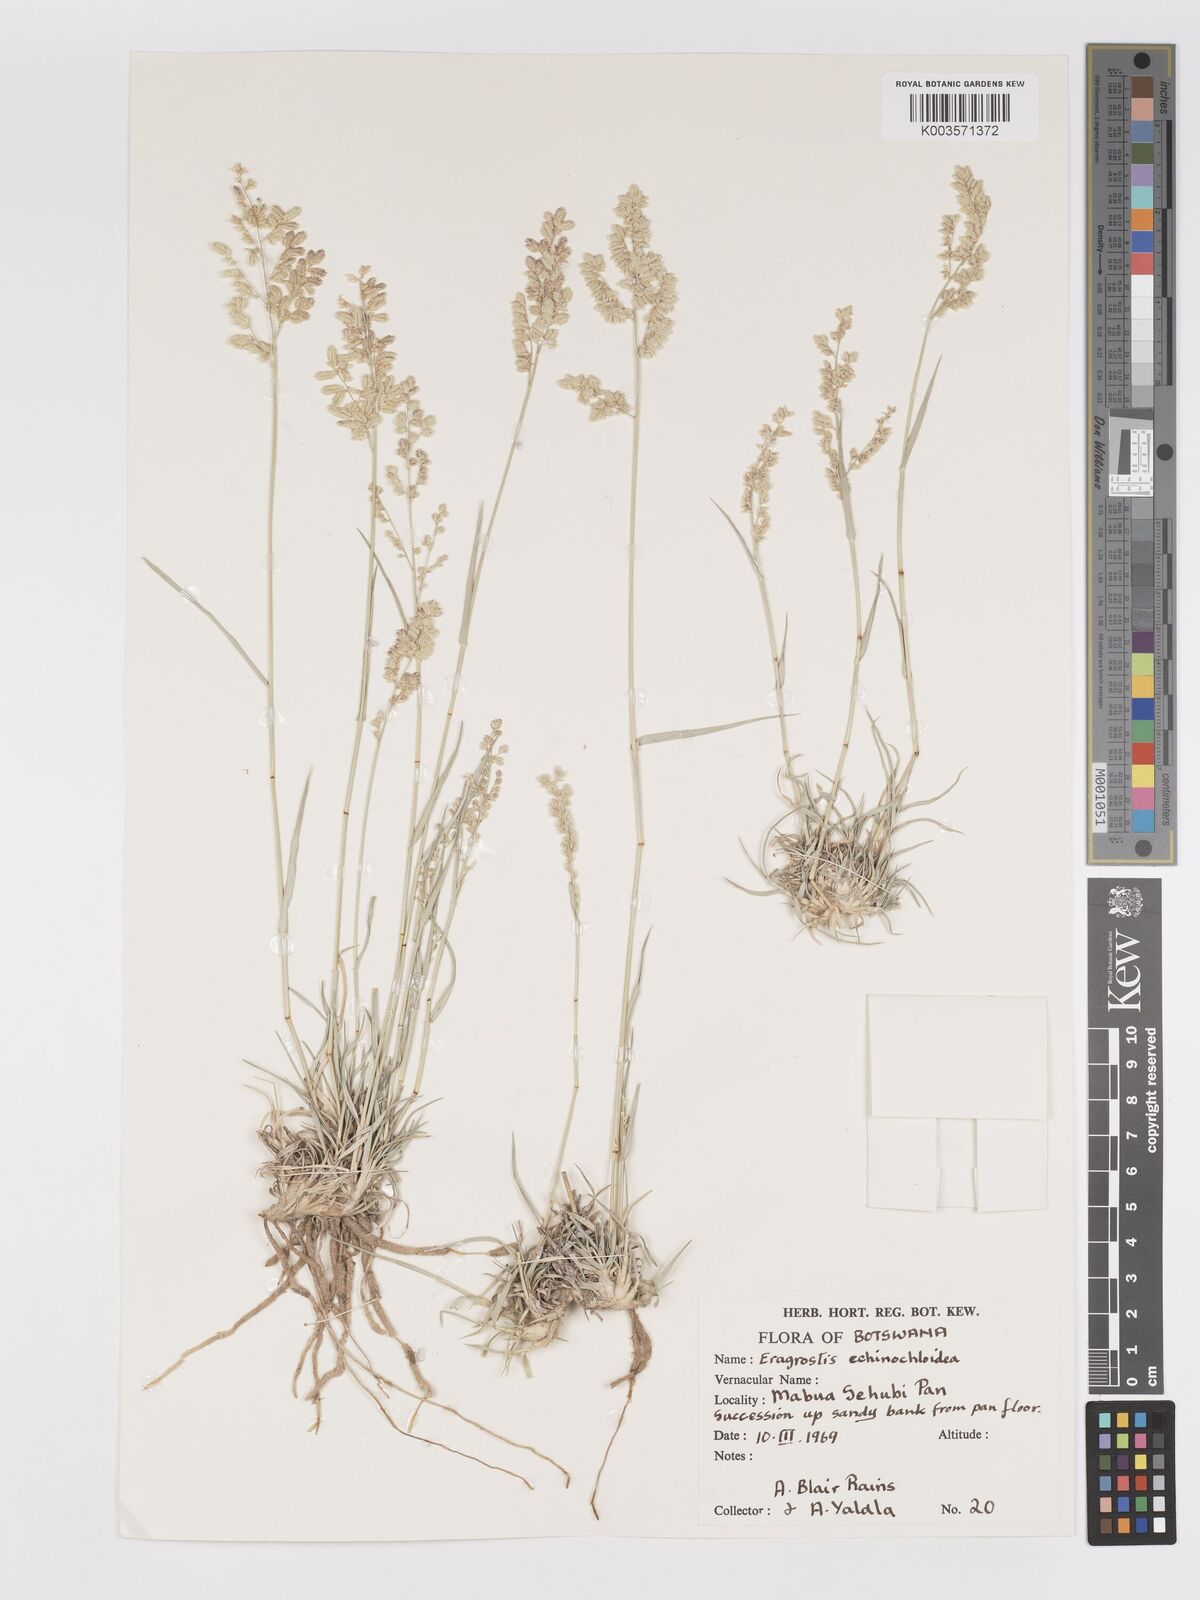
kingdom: Plantae
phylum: Tracheophyta
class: Liliopsida
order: Poales
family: Poaceae
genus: Eragrostis
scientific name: Eragrostis echinochloidea
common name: African lovegrass
